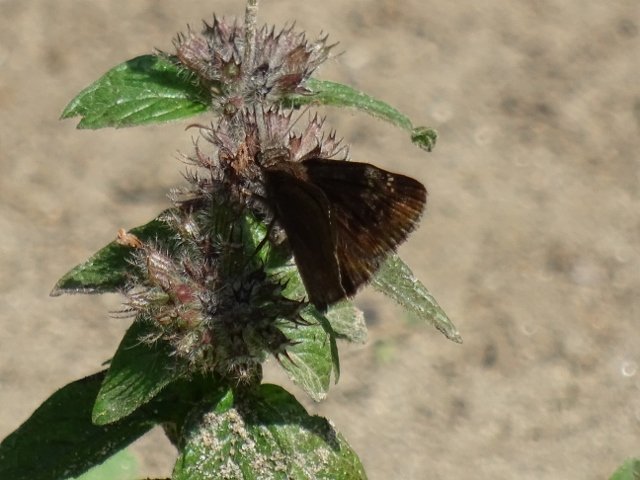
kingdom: Animalia
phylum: Arthropoda
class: Insecta
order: Lepidoptera
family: Hesperiidae
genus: Gesta
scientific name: Gesta
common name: Wild Indigo Duskywing
